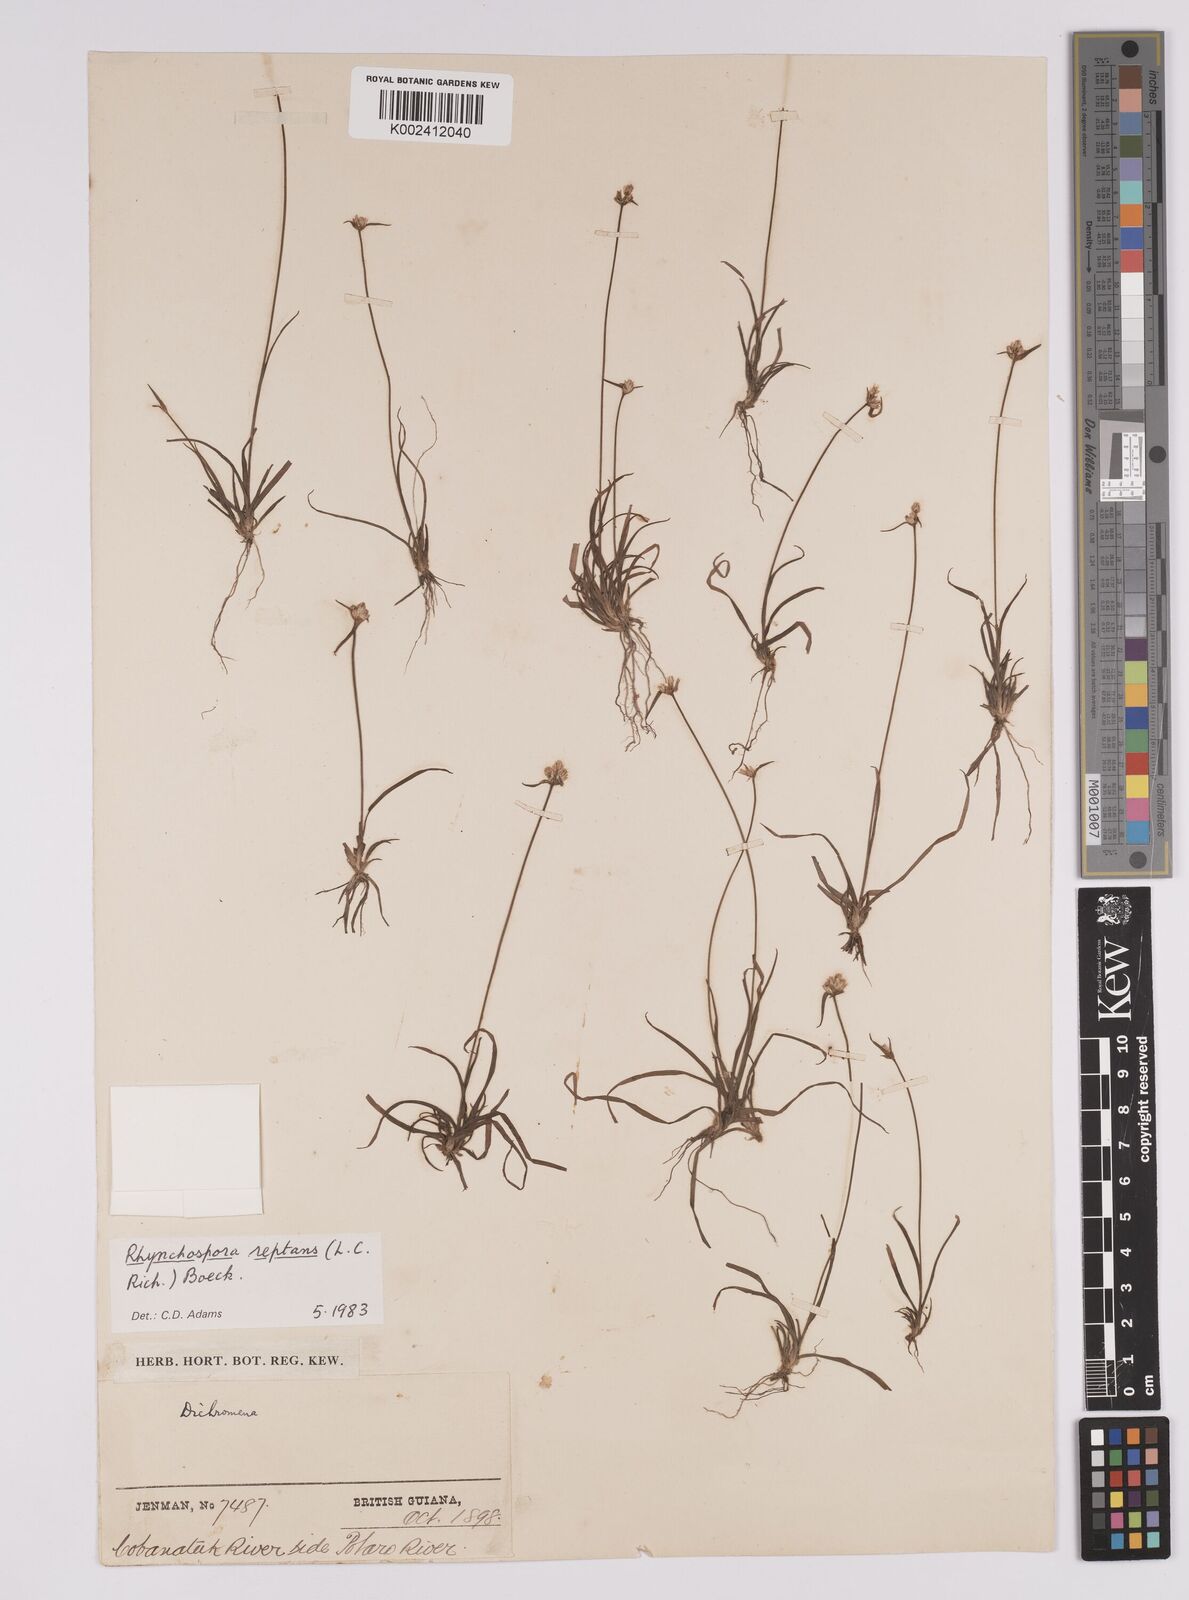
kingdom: Plantae
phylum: Tracheophyta
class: Liliopsida
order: Poales
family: Cyperaceae
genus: Rhynchospora
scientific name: Rhynchospora reptans
